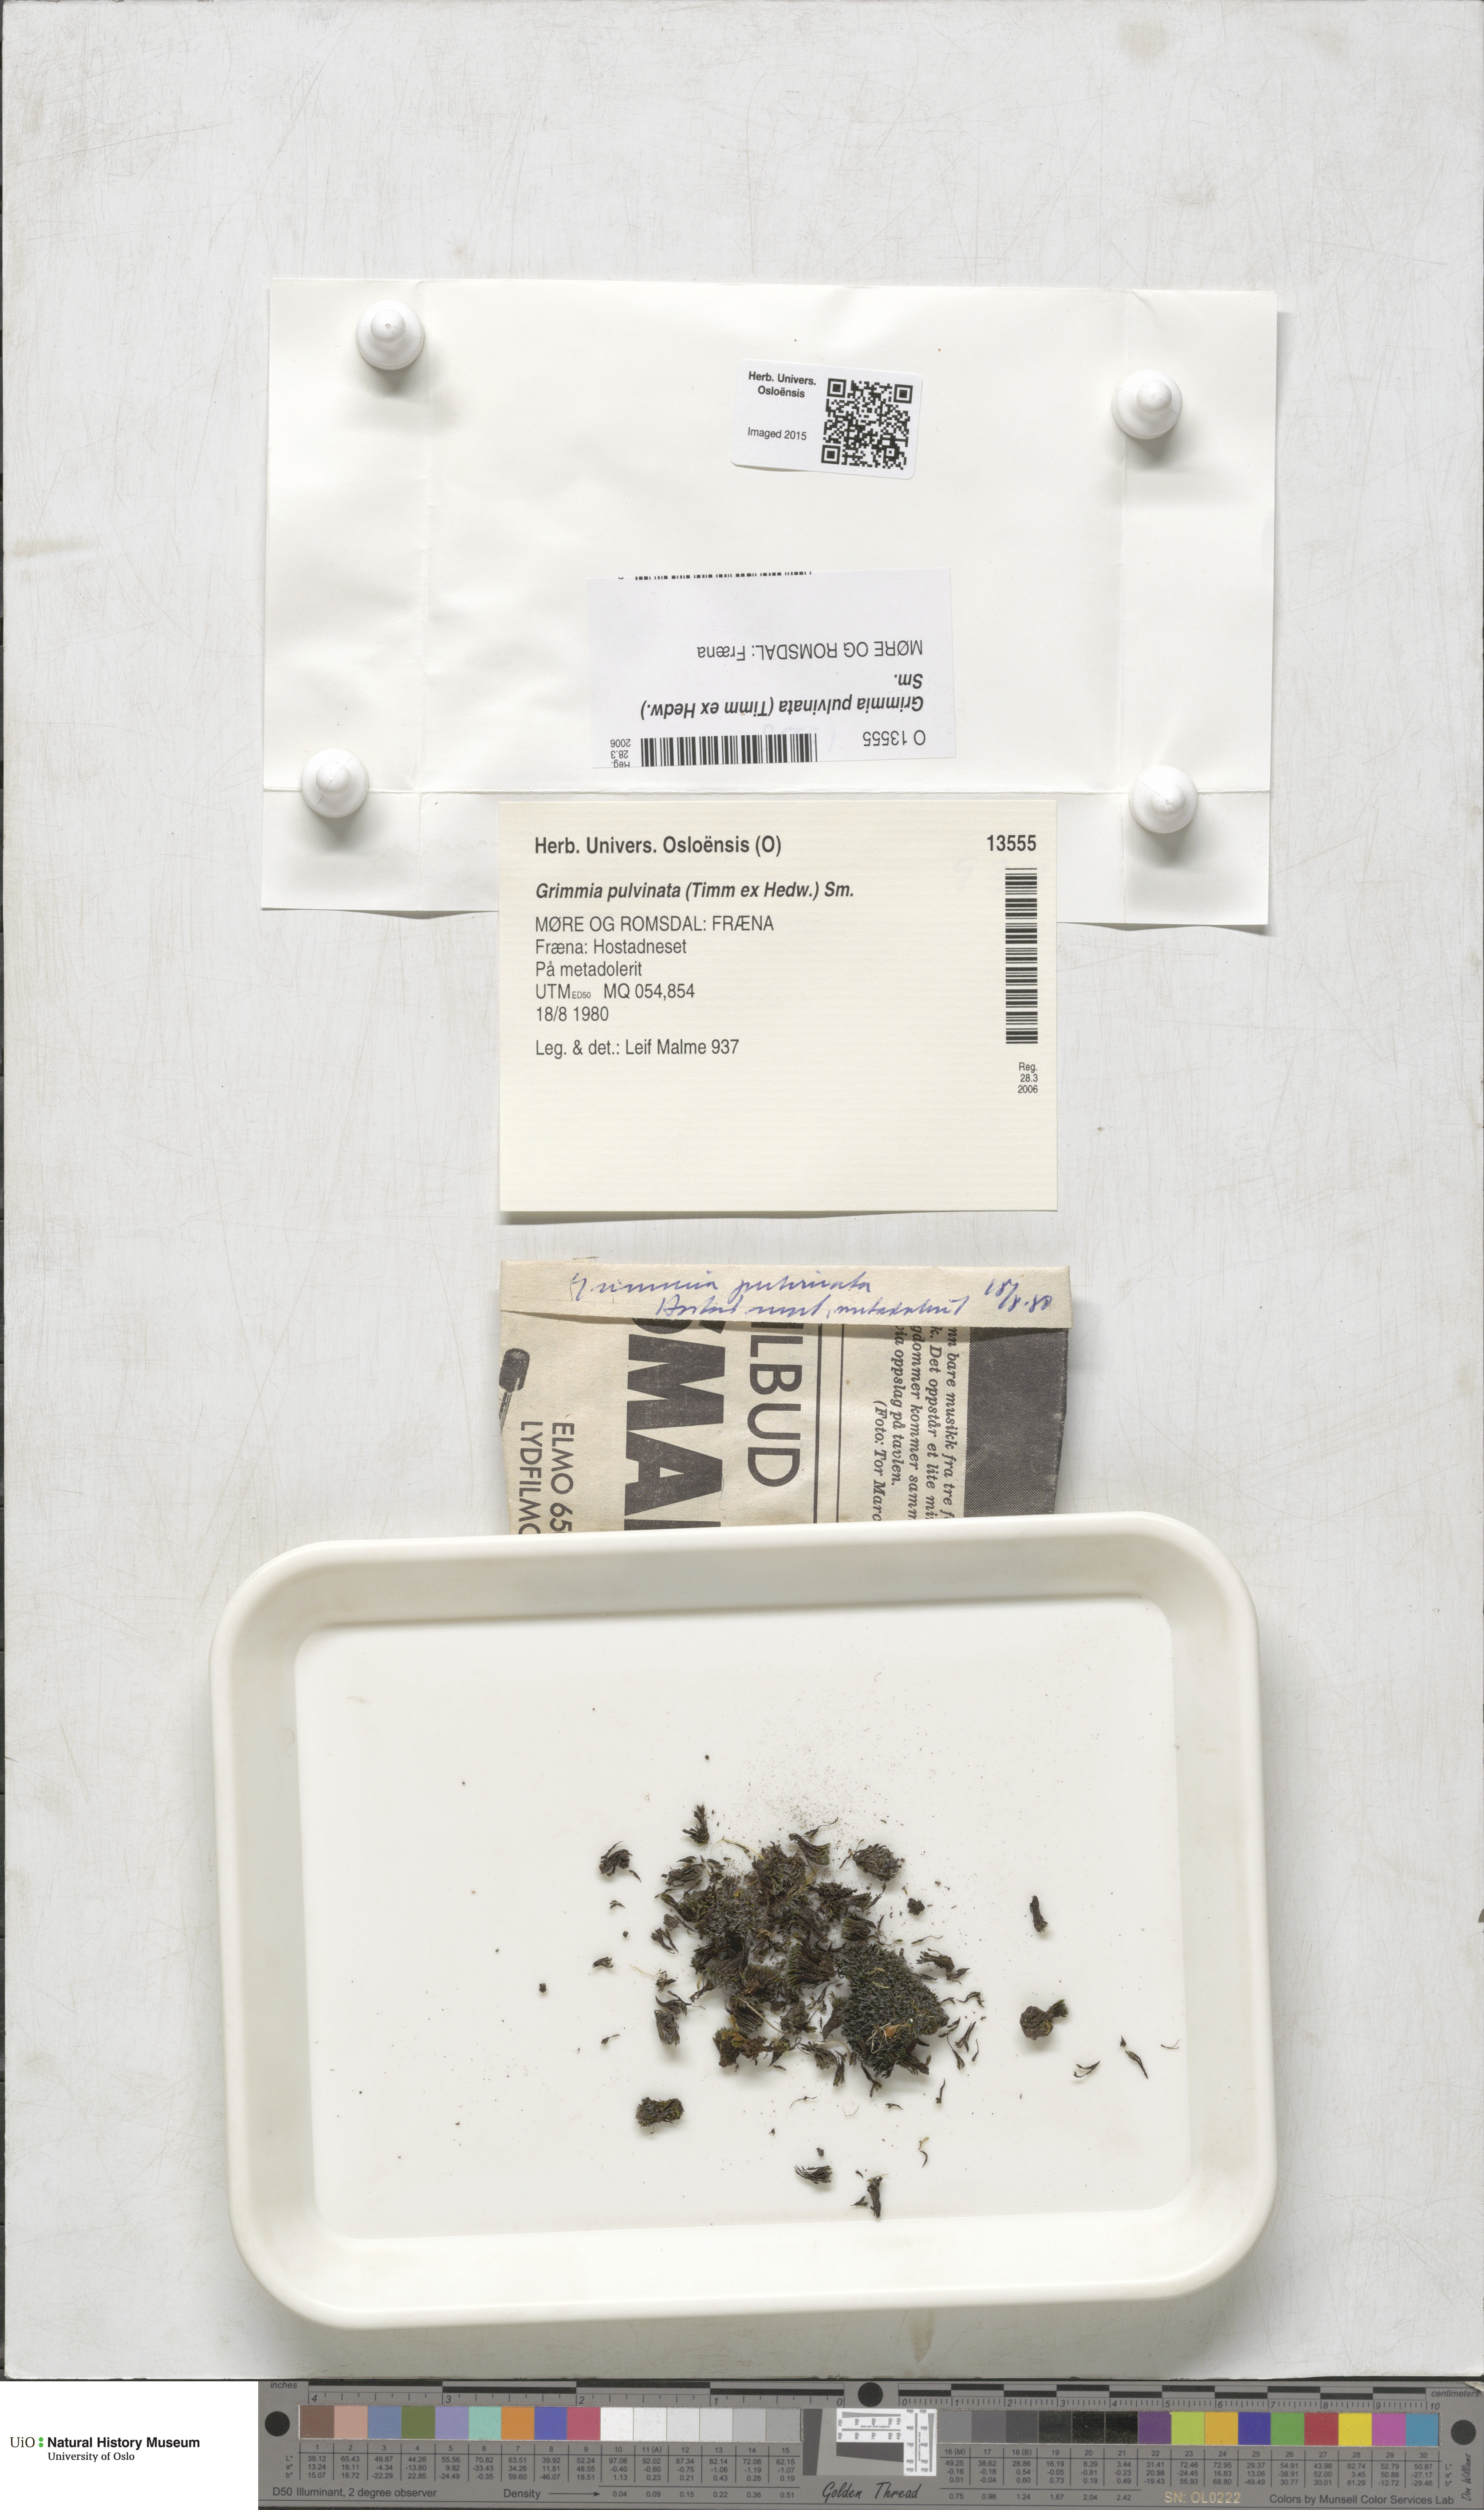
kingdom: Plantae
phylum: Bryophyta
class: Bryopsida
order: Grimmiales
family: Grimmiaceae
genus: Grimmia
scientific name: Grimmia pulvinata
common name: Grey-cushioned grimmia
